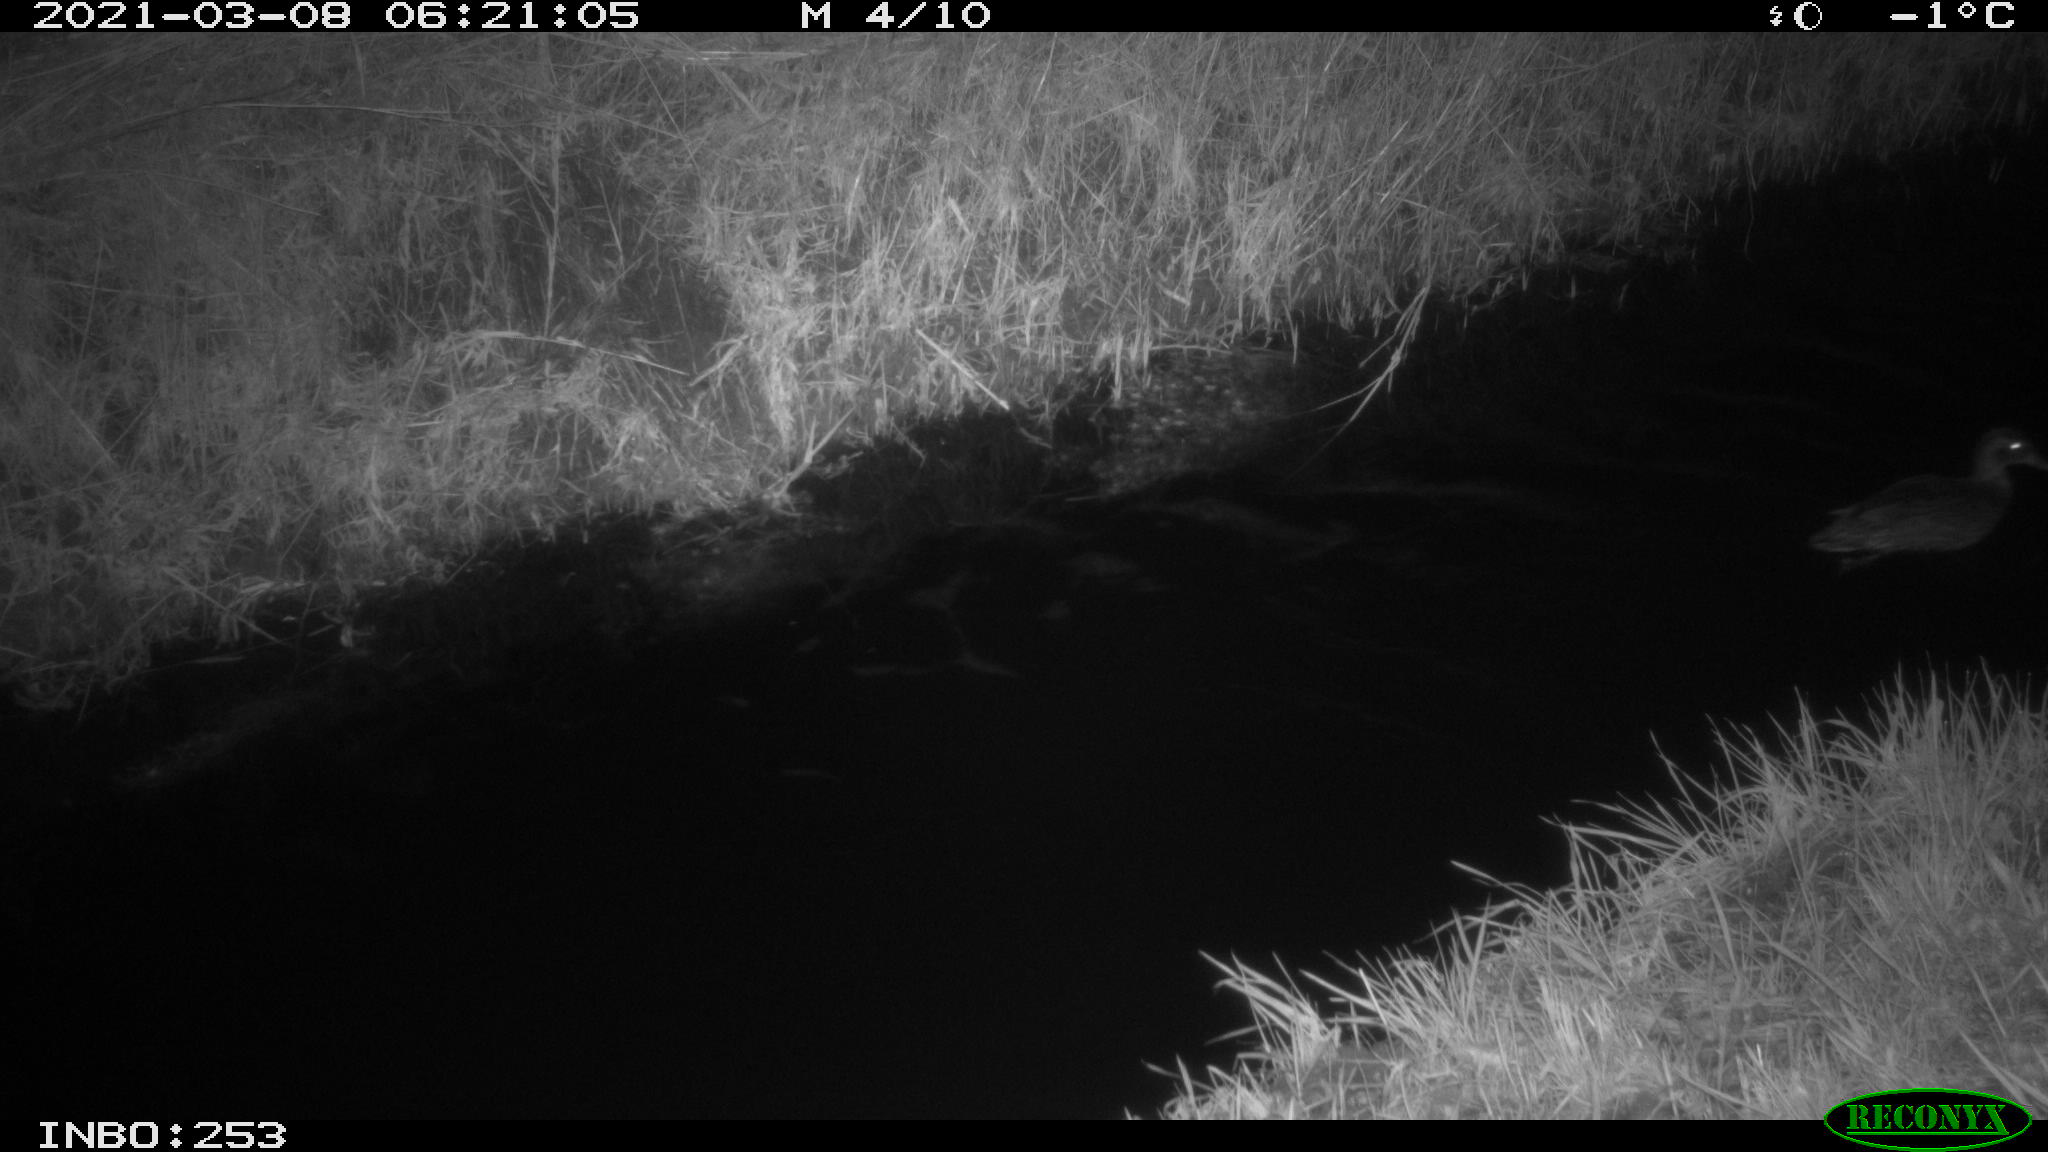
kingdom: Animalia
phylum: Chordata
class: Aves
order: Anseriformes
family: Anatidae
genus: Anas
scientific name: Anas platyrhynchos
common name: Mallard
